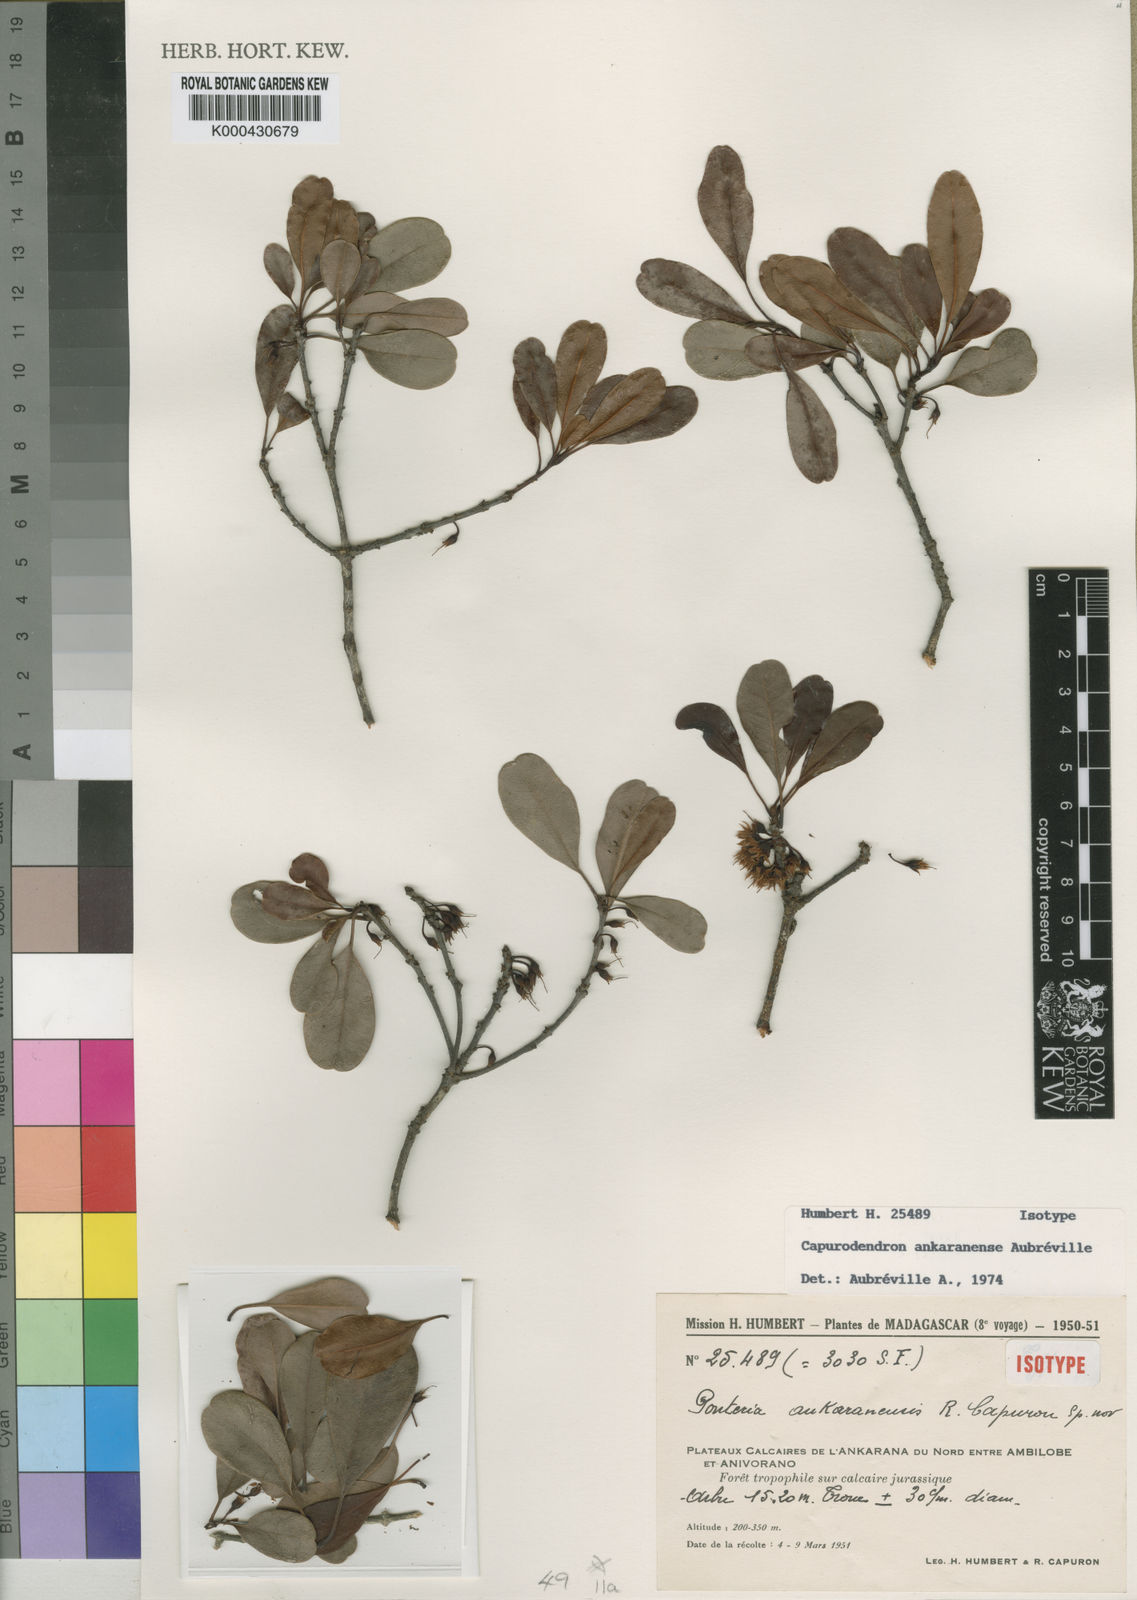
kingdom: Plantae
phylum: Tracheophyta
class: Magnoliopsida
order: Ericales
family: Sapotaceae
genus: Capurodendron
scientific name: Capurodendron
